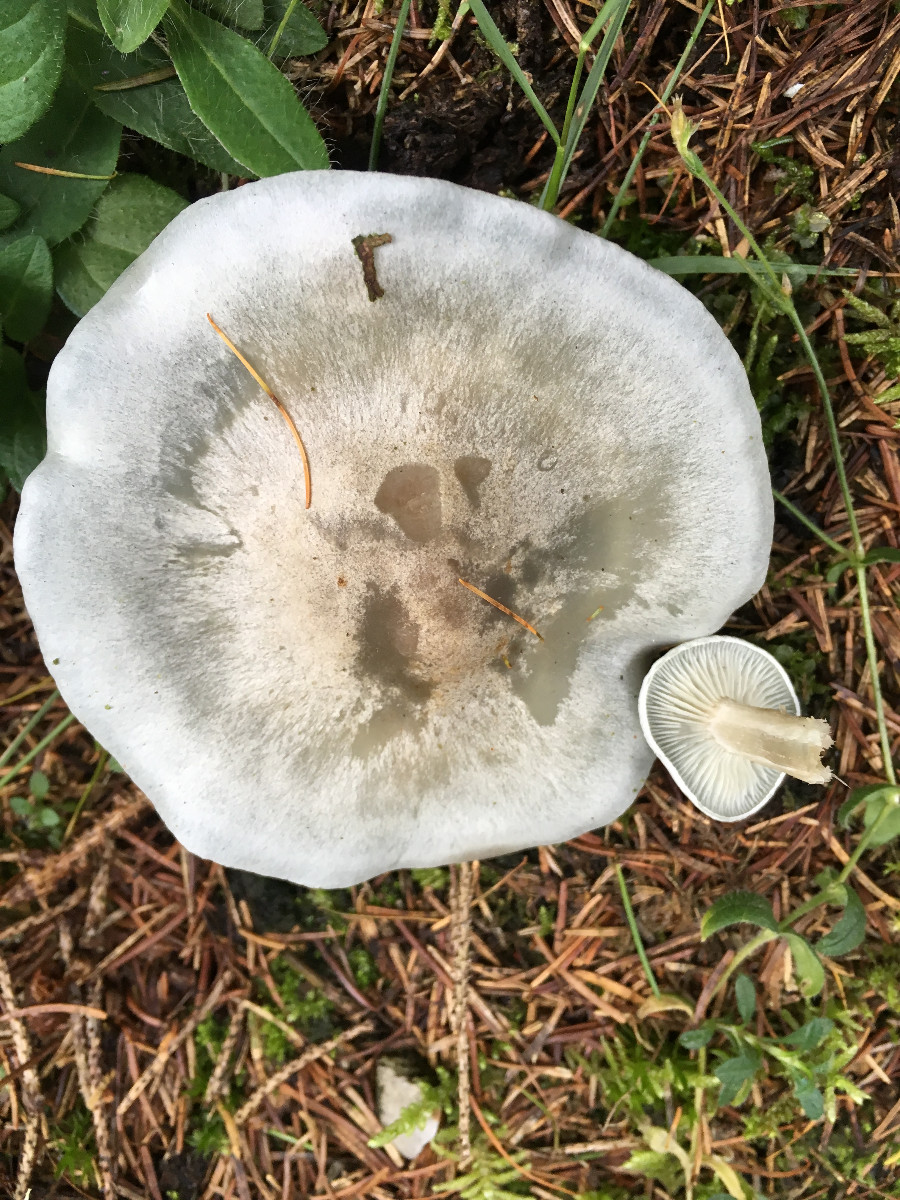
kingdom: Fungi
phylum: Basidiomycota
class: Agaricomycetes
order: Agaricales
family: Tricholomataceae
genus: Clitocybe
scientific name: Clitocybe odora
